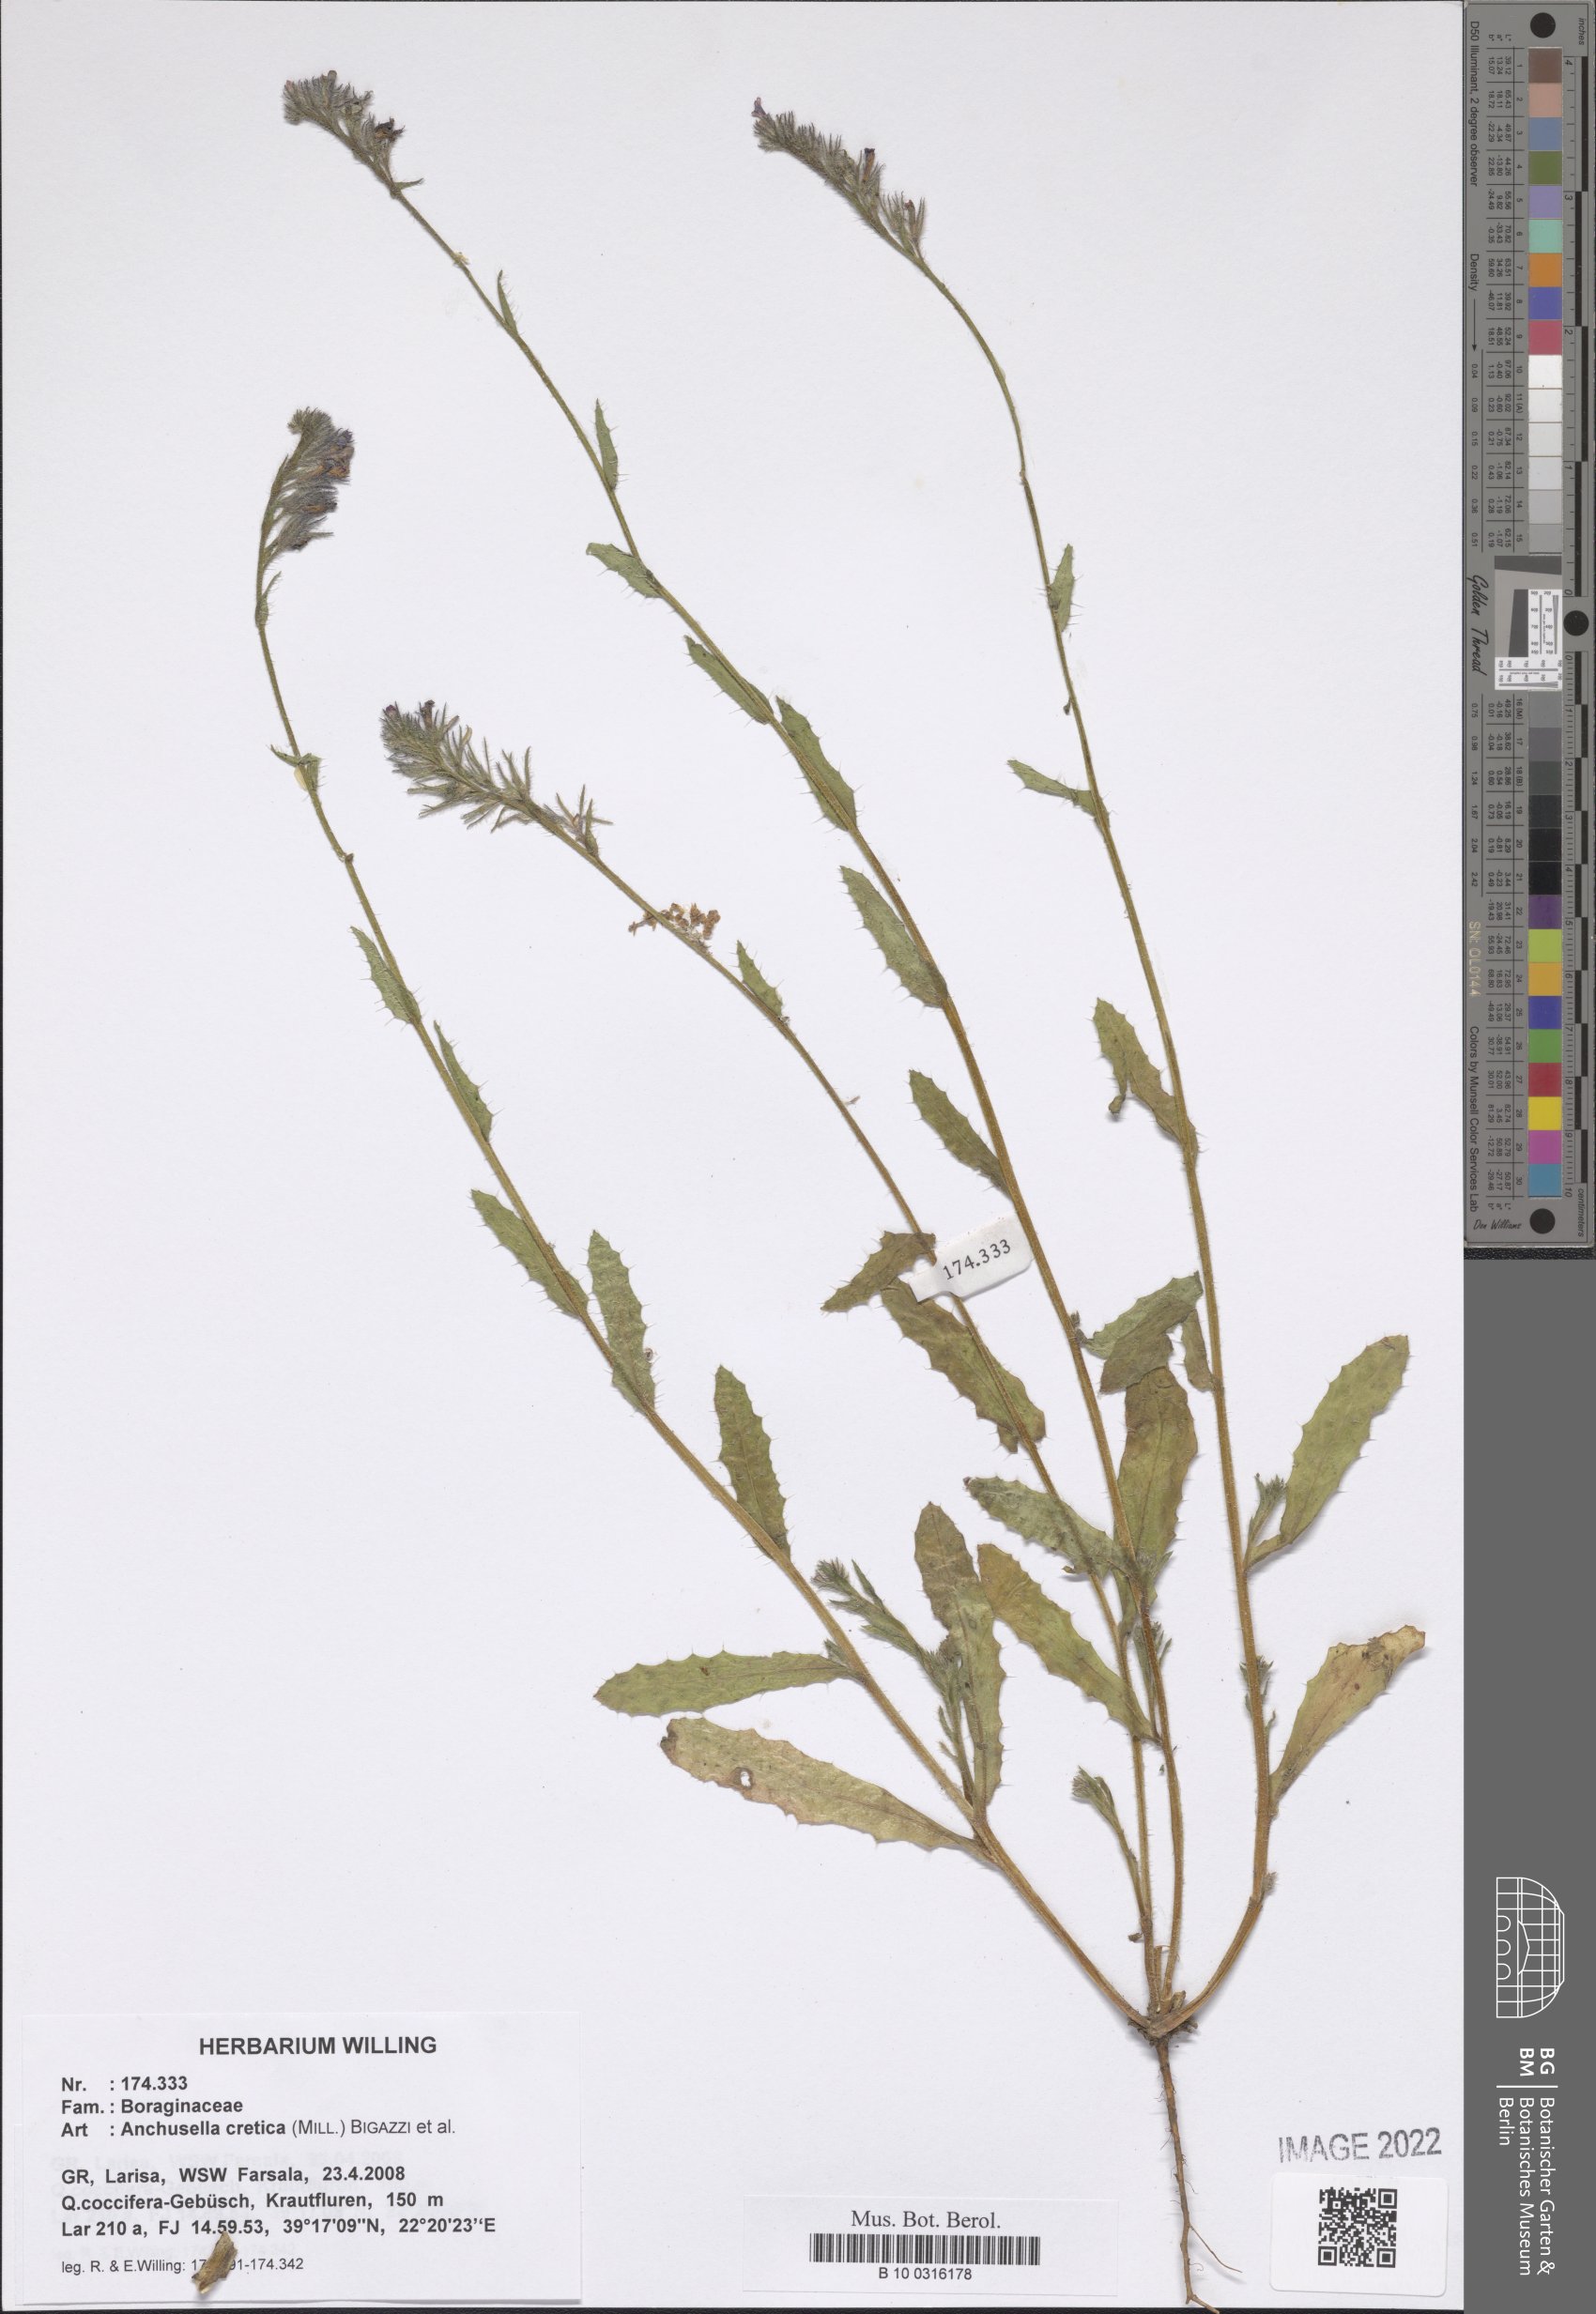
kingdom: Plantae
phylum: Tracheophyta
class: Magnoliopsida
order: Boraginales
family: Boraginaceae
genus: Anchusella
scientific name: Anchusella cretica
